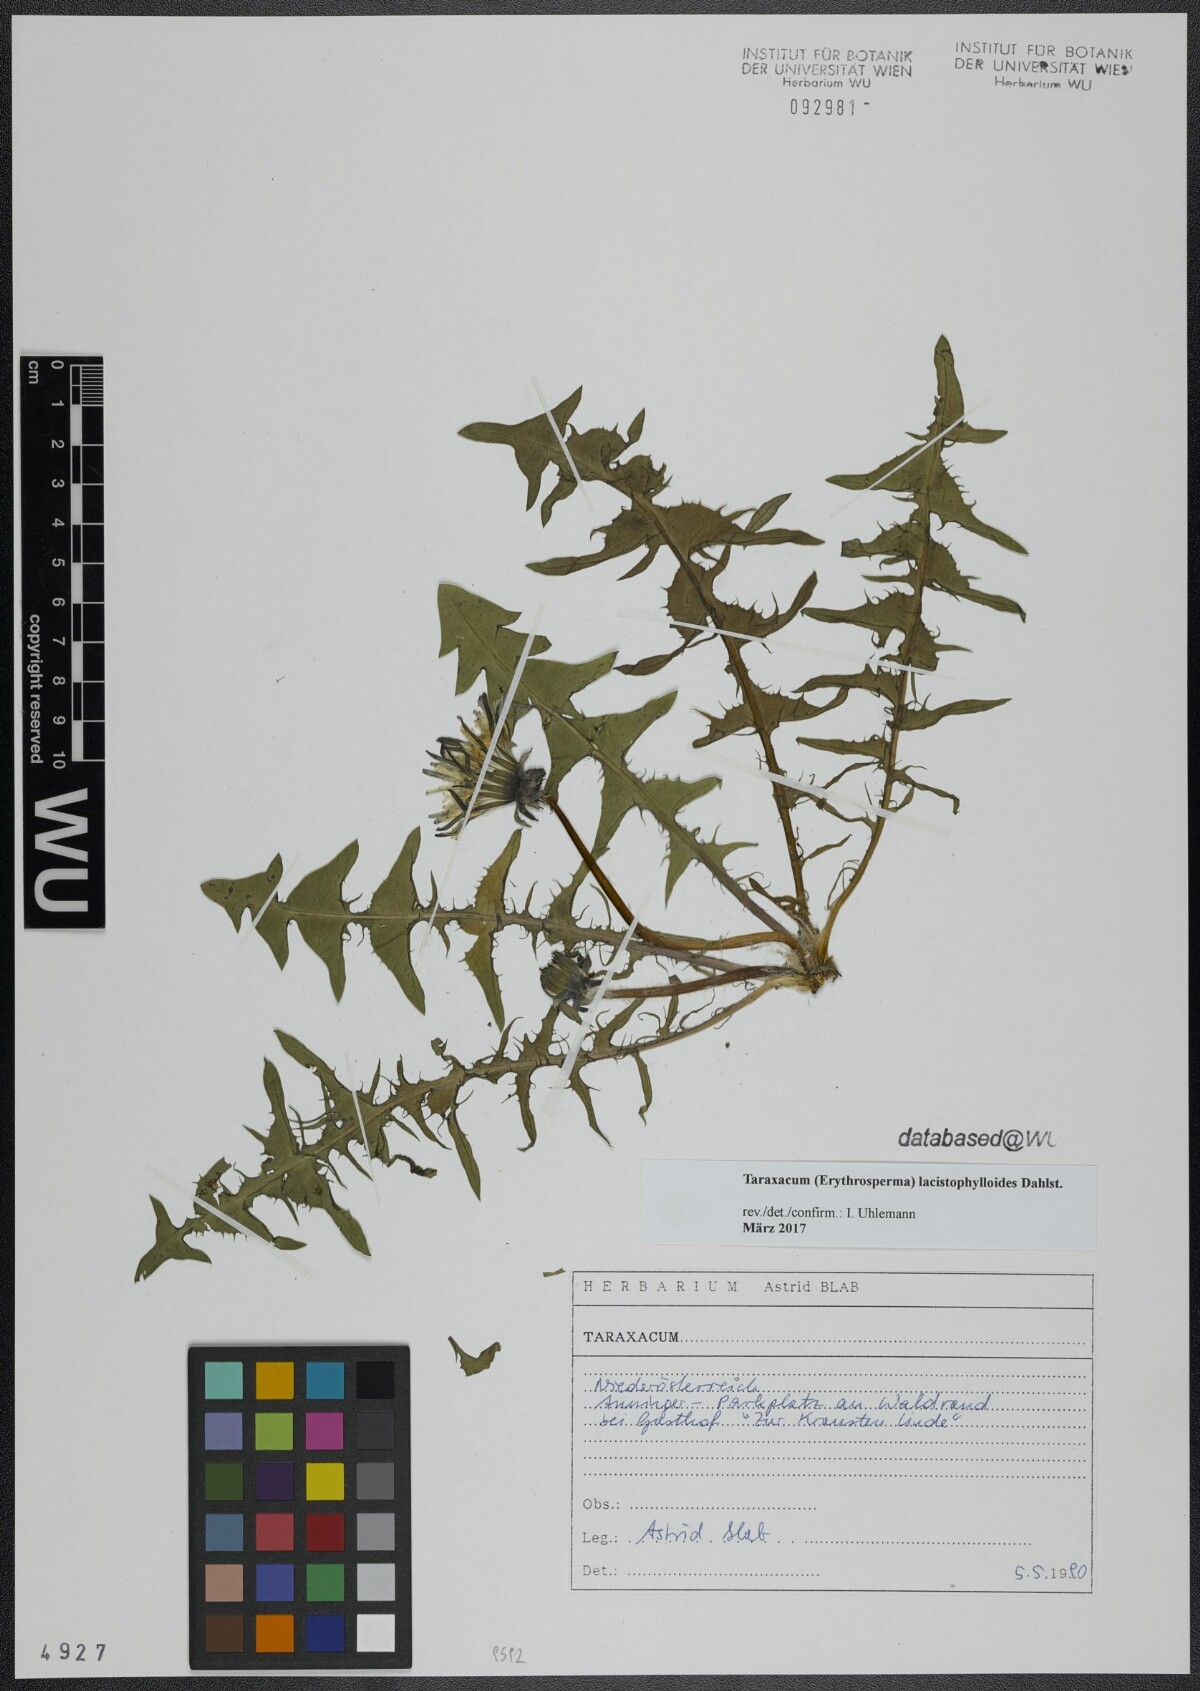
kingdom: Plantae
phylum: Tracheophyta
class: Magnoliopsida
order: Asterales
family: Asteraceae
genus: Taraxacum
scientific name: Taraxacum lacistophylloides
